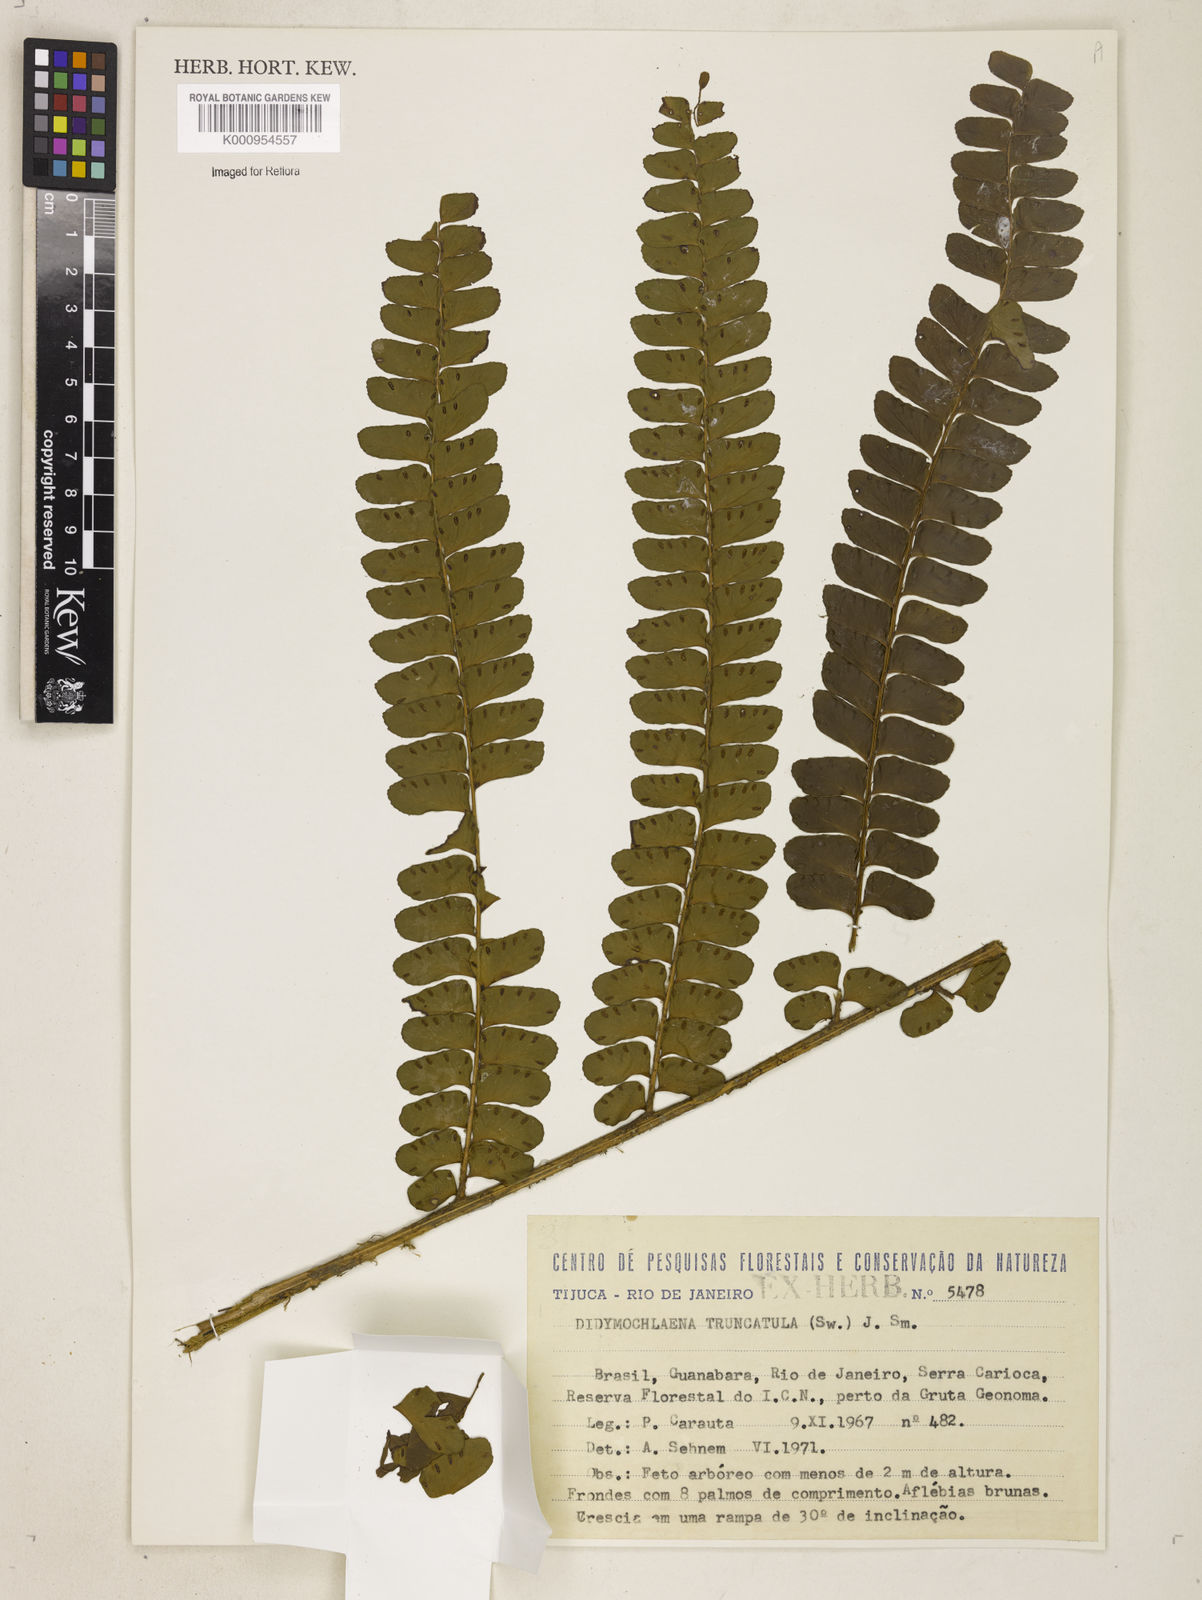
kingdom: Plantae
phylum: Tracheophyta
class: Polypodiopsida
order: Polypodiales
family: Didymochlaenaceae
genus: Didymochlaena
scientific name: Didymochlaena truncatula
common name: Mahogany fern
